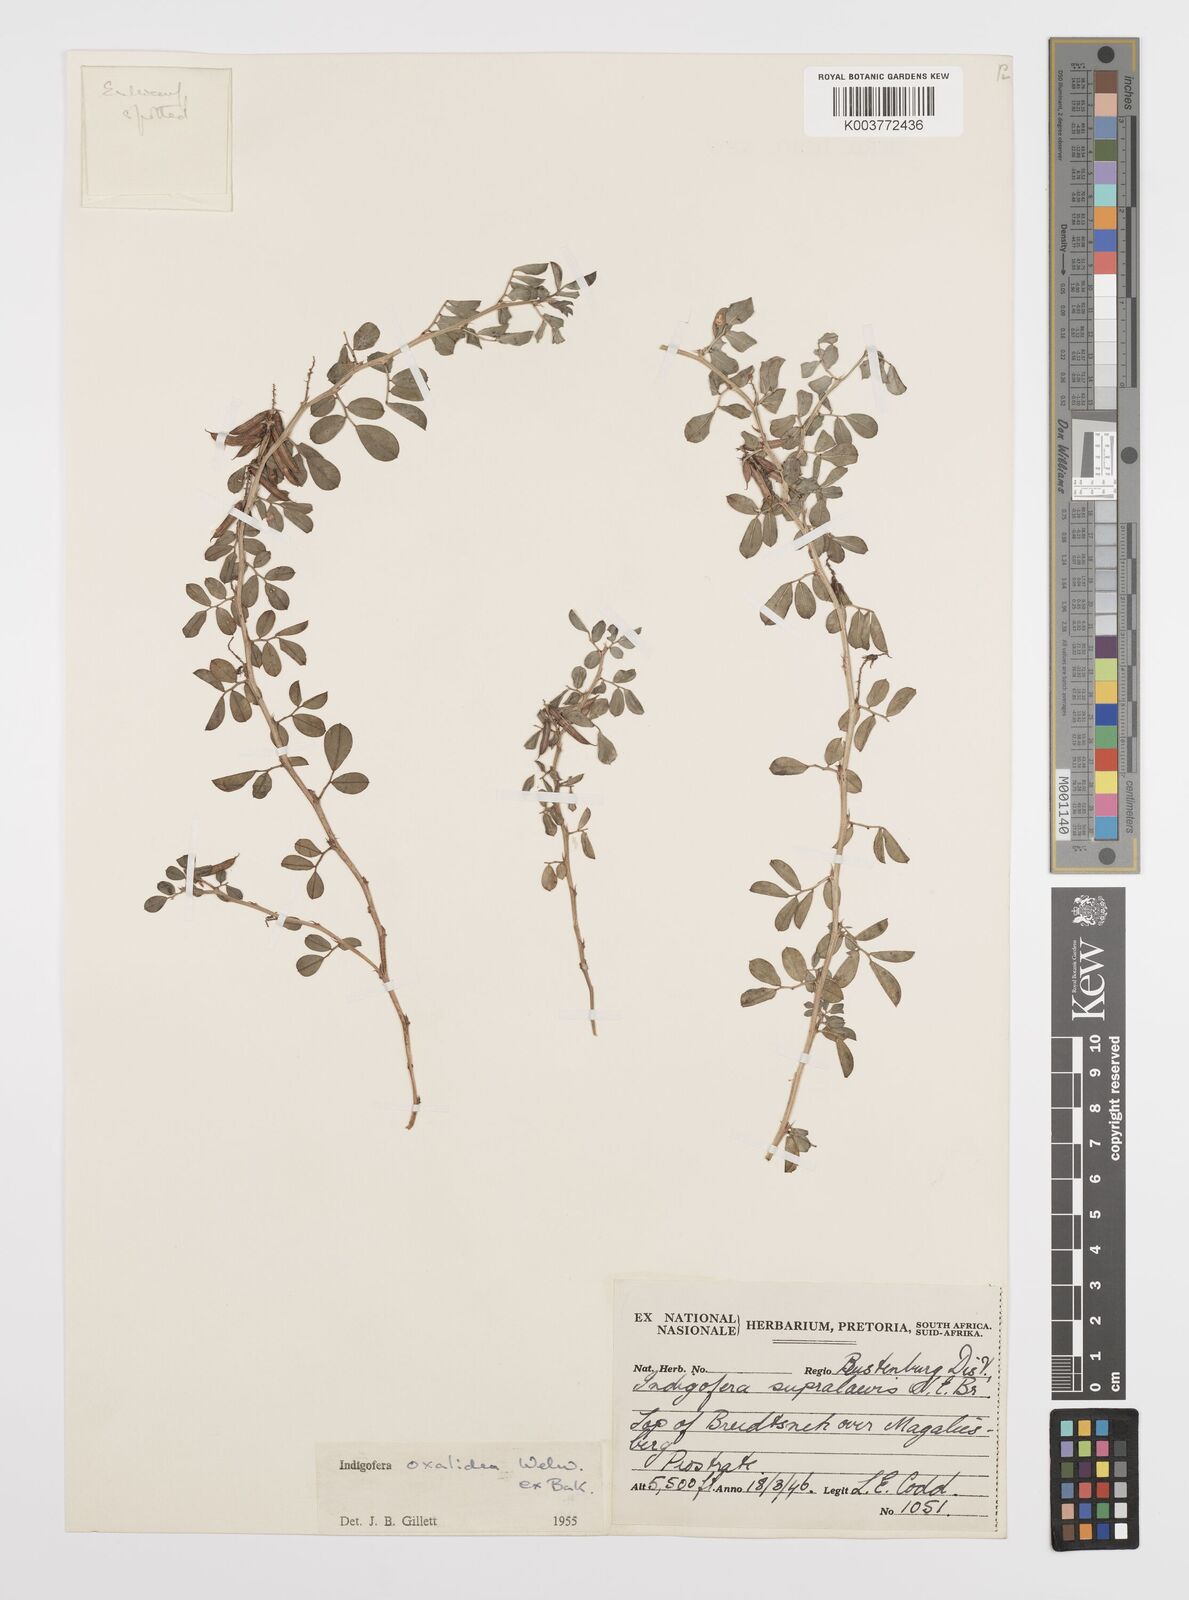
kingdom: Plantae
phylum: Tracheophyta
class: Magnoliopsida
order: Fabales
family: Fabaceae
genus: Indigofera
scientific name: Indigofera oxalidea
